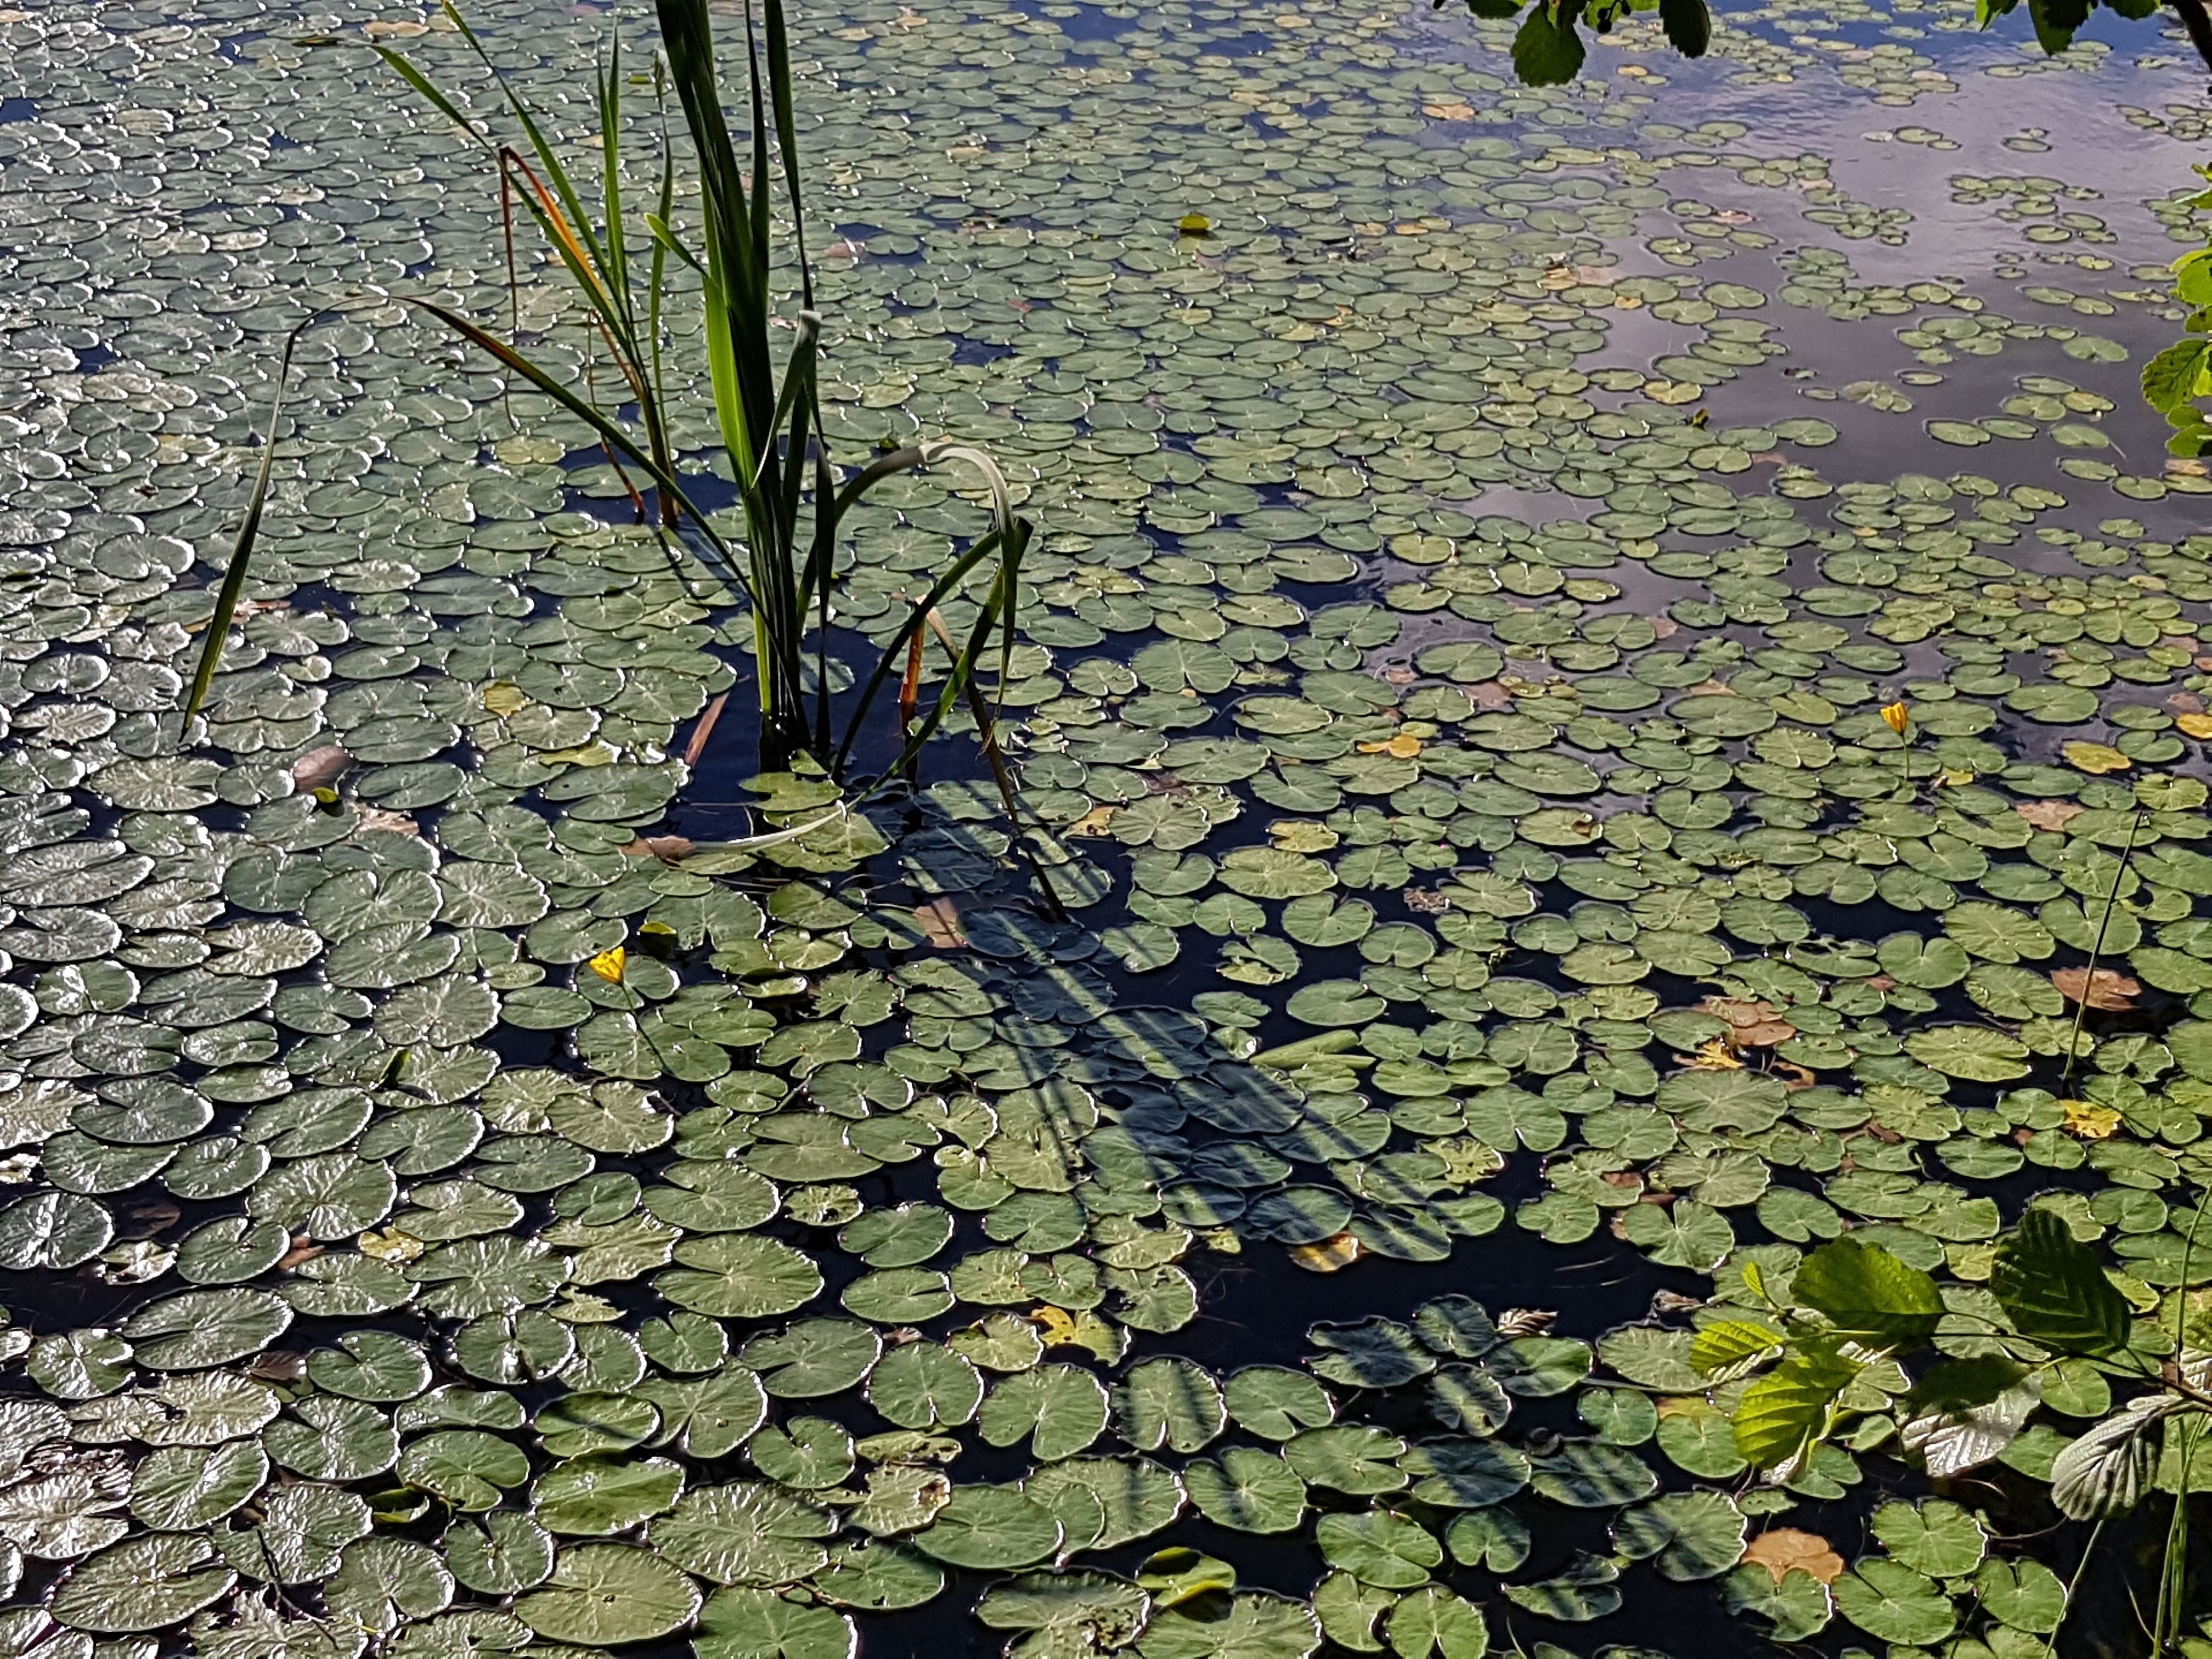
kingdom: Plantae
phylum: Tracheophyta
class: Magnoliopsida
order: Asterales
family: Menyanthaceae
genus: Nymphoides
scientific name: Nymphoides peltata
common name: Fringed water-lily
